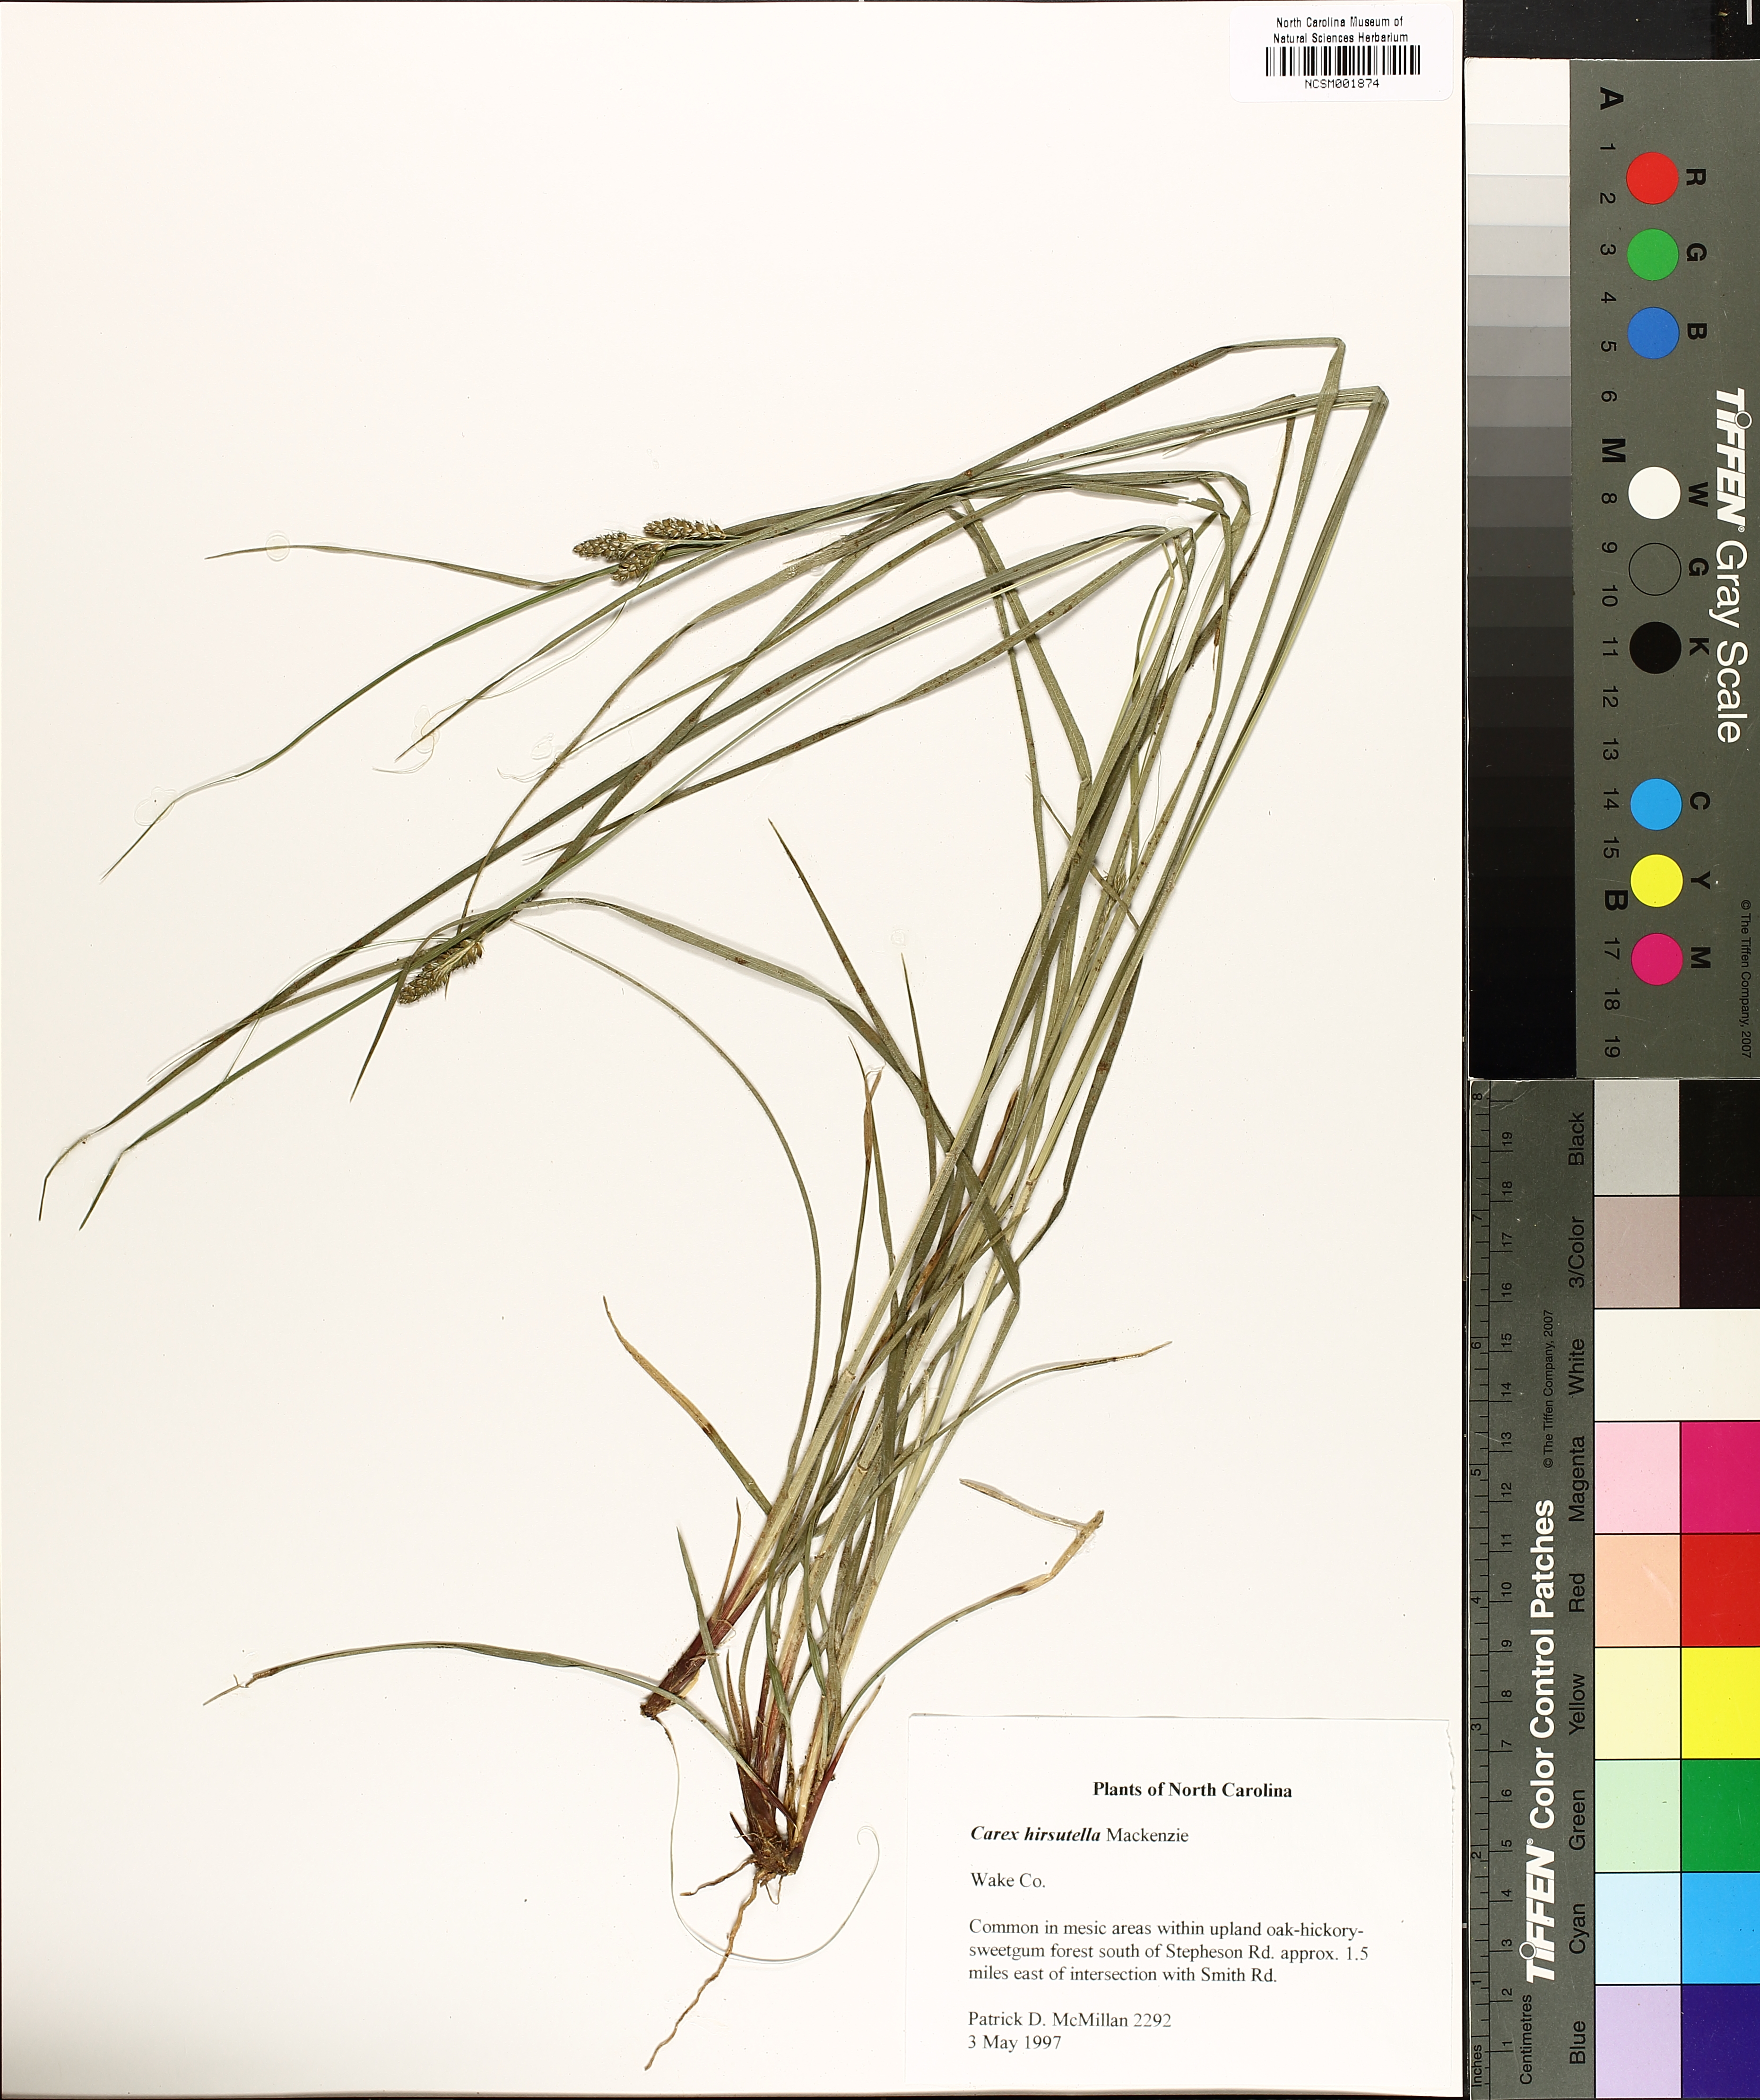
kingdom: Plantae
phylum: Tracheophyta
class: Liliopsida
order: Poales
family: Cyperaceae
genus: Carex
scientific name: Carex hirsutella
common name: Fuzzy wuzzy sedge
